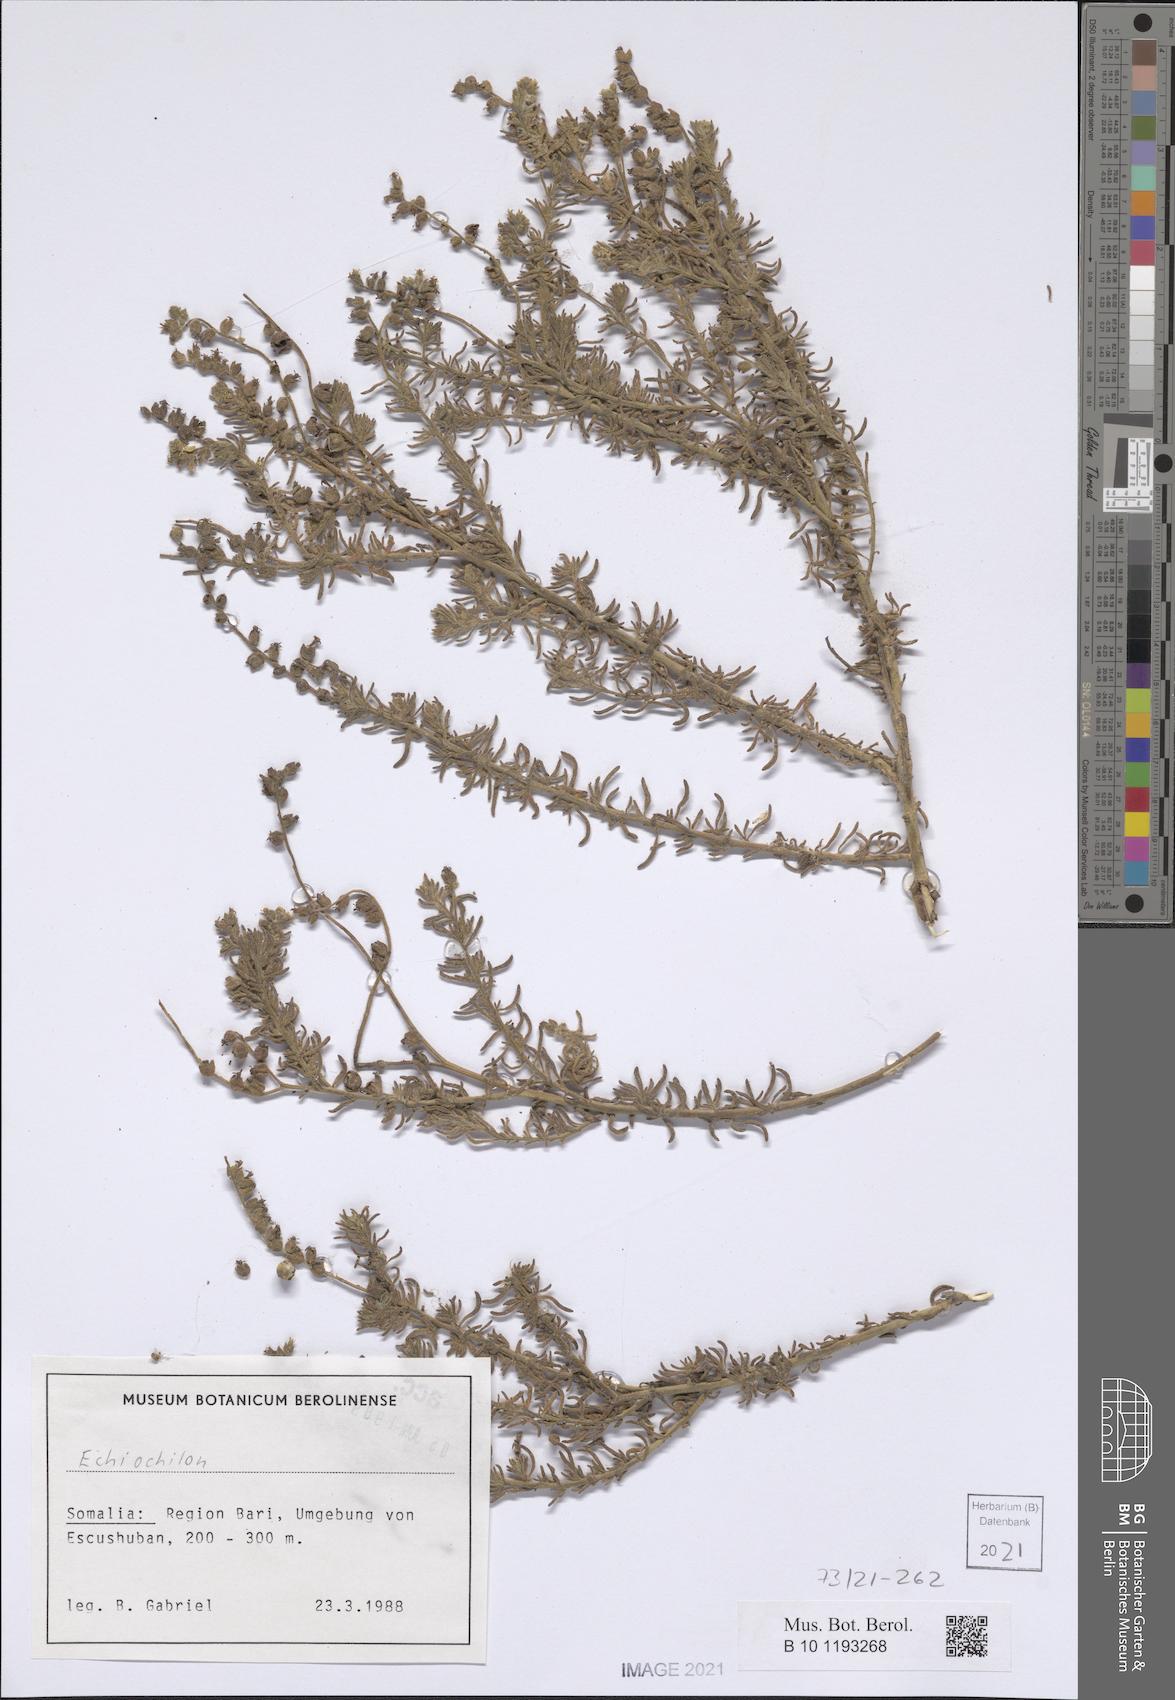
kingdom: Plantae
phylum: Tracheophyta
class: Magnoliopsida
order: Boraginales
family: Heliotropiaceae
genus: Heliotropium
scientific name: Heliotropium drepanophyllum
